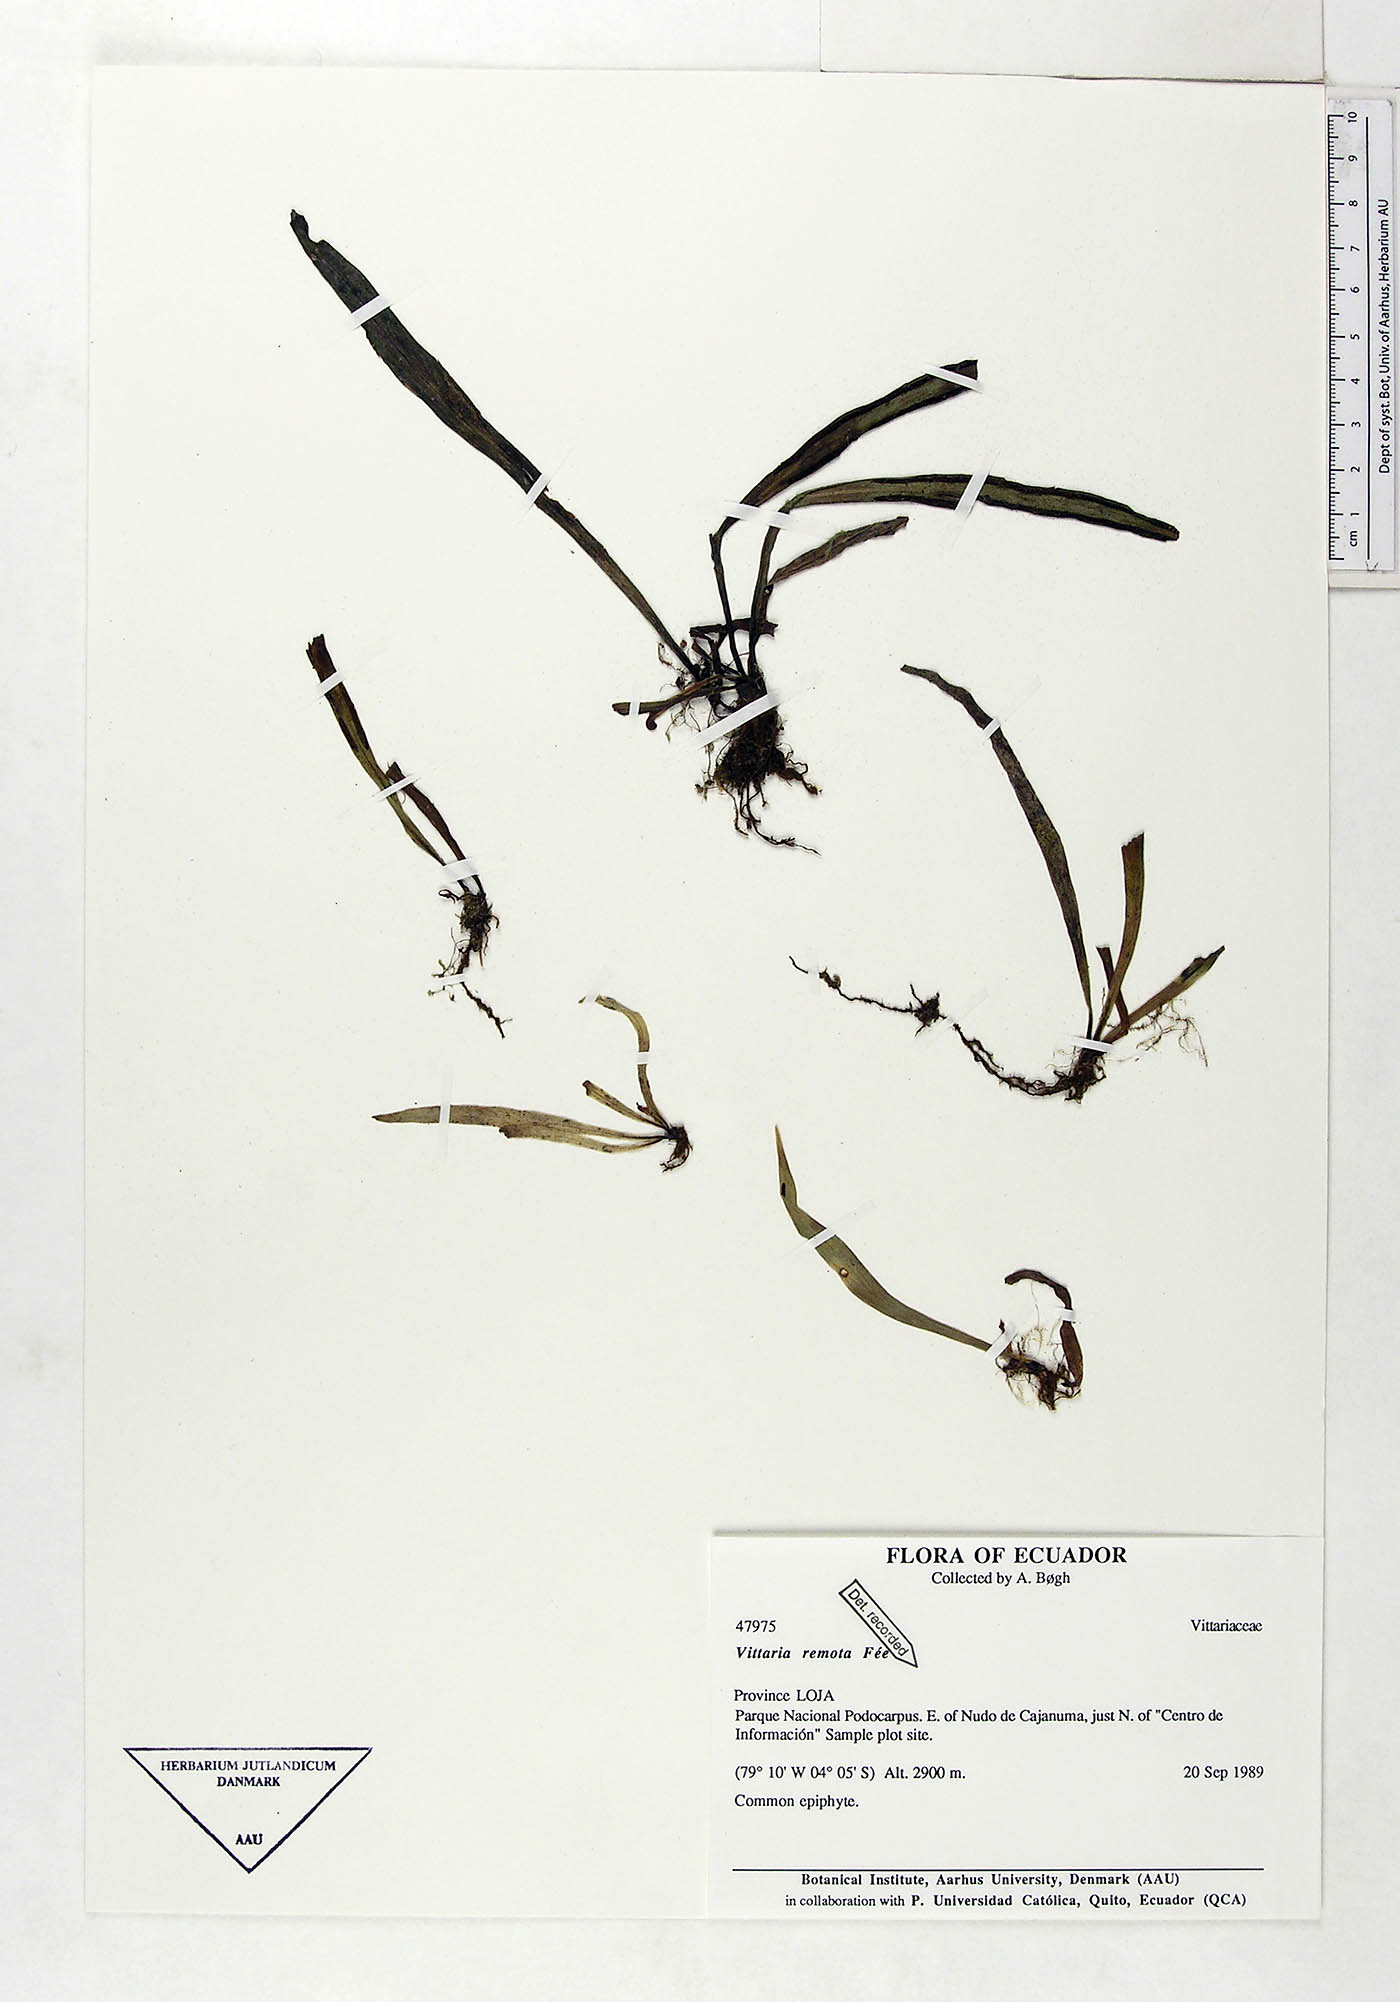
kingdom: Plantae
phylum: Tracheophyta
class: Polypodiopsida
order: Polypodiales
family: Pteridaceae
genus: Radiovittaria
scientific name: Radiovittaria remota
